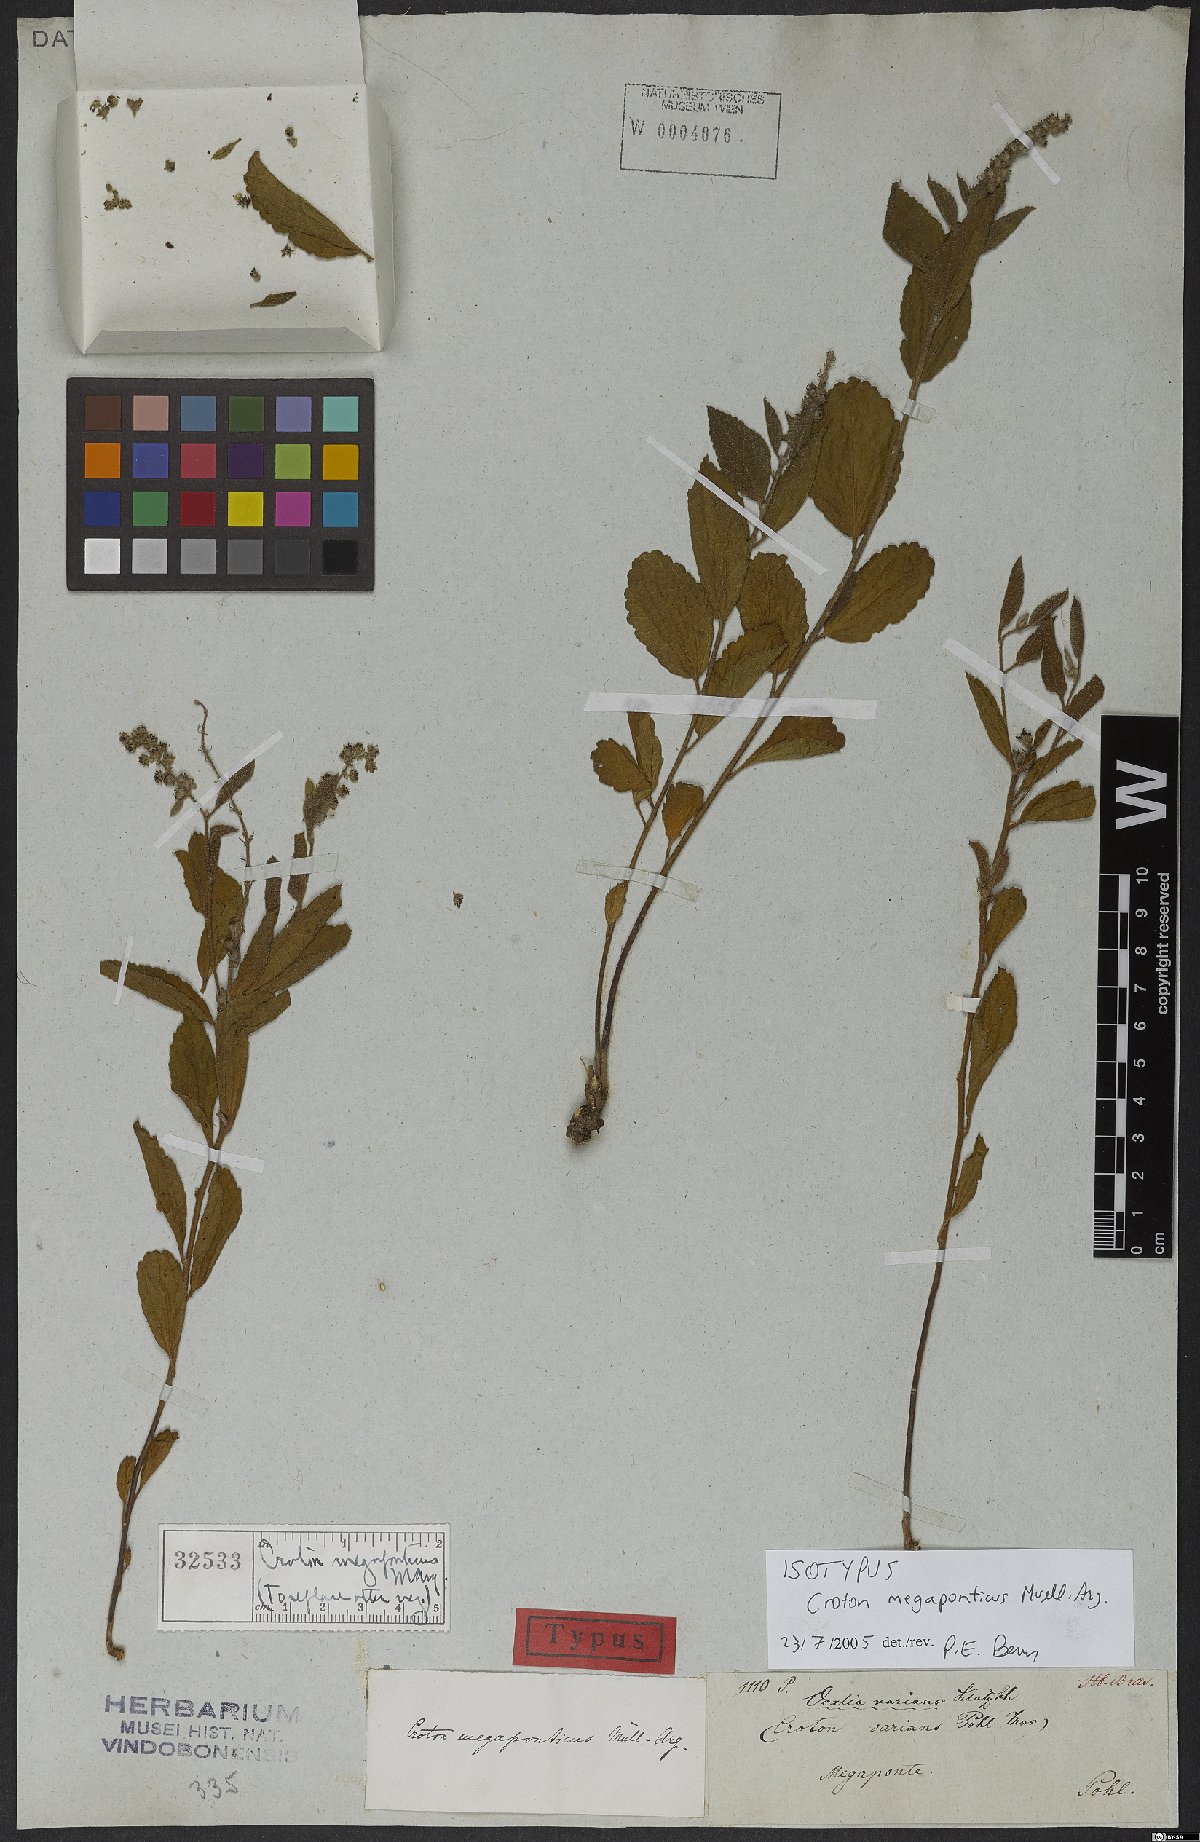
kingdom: Plantae
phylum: Tracheophyta
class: Magnoliopsida
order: Malpighiales
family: Euphorbiaceae
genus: Croton
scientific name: Croton abaitensis
